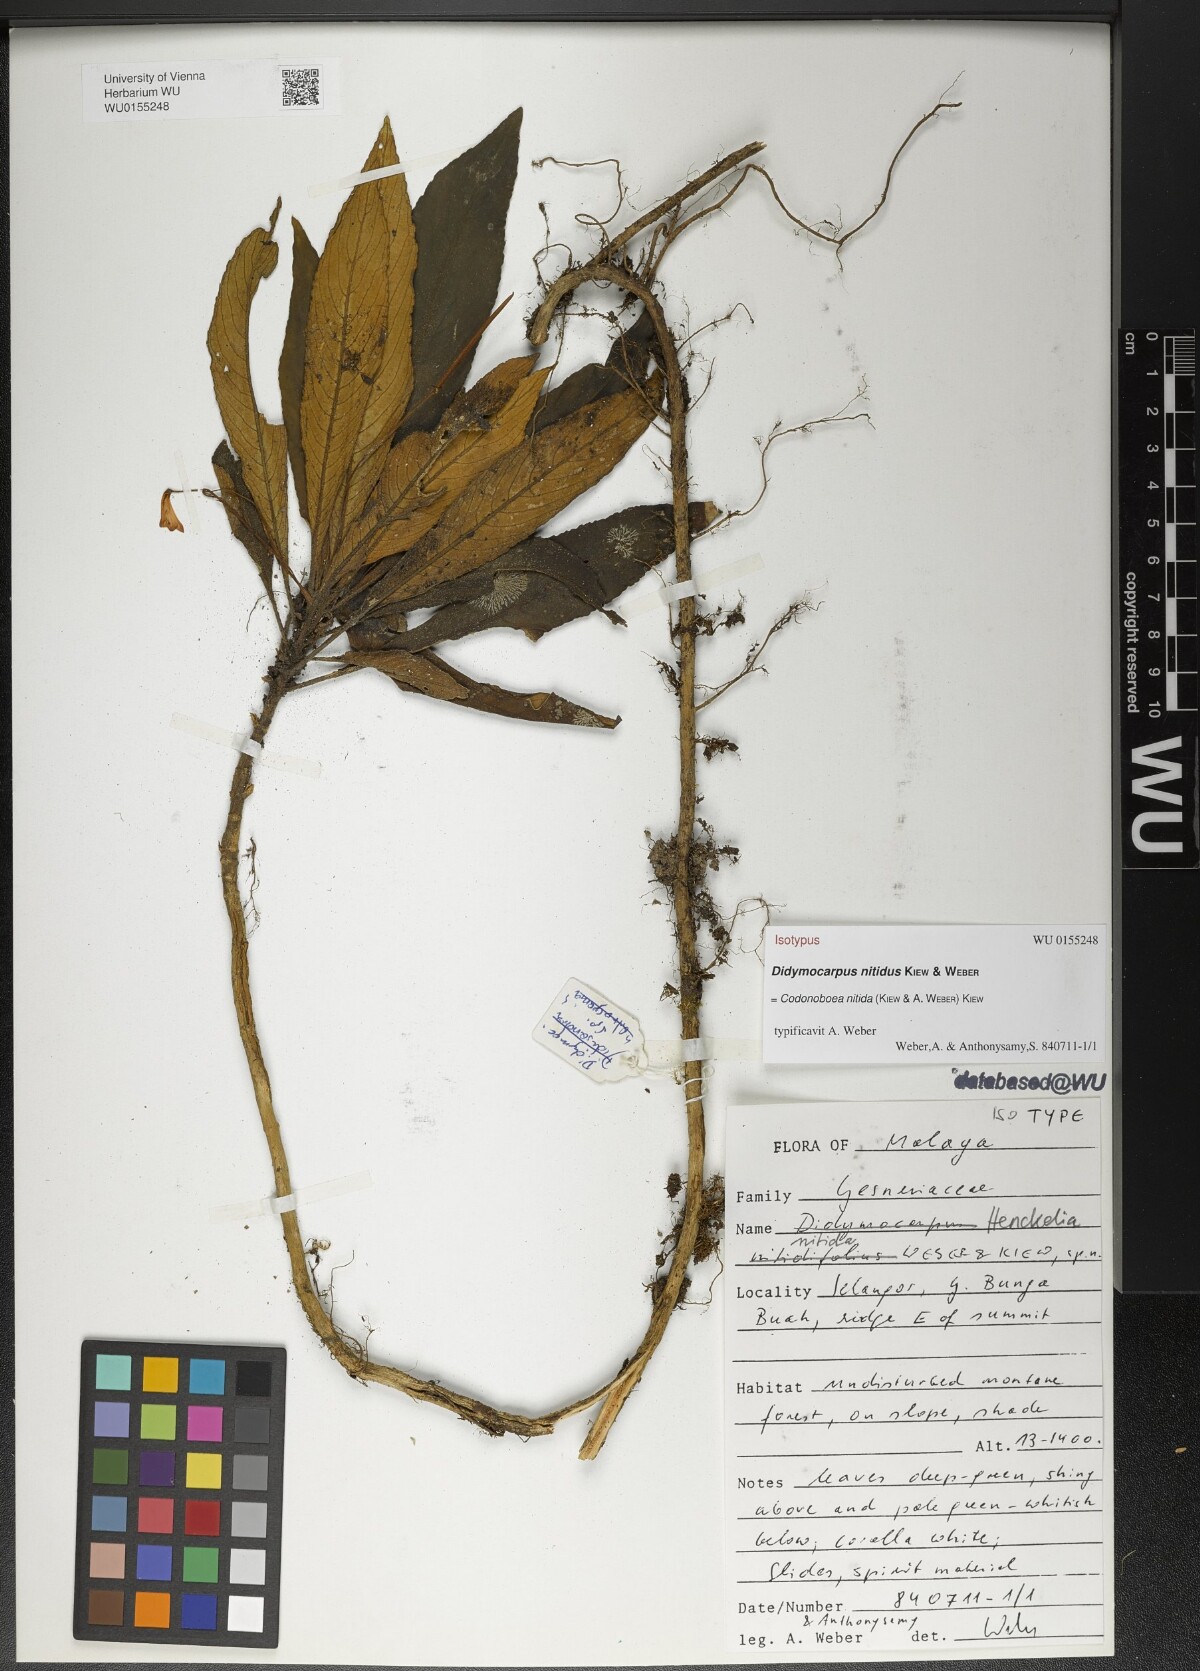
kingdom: Plantae
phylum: Tracheophyta
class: Magnoliopsida
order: Lamiales
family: Gesneriaceae
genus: Codonoboea
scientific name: Codonoboea nitida
